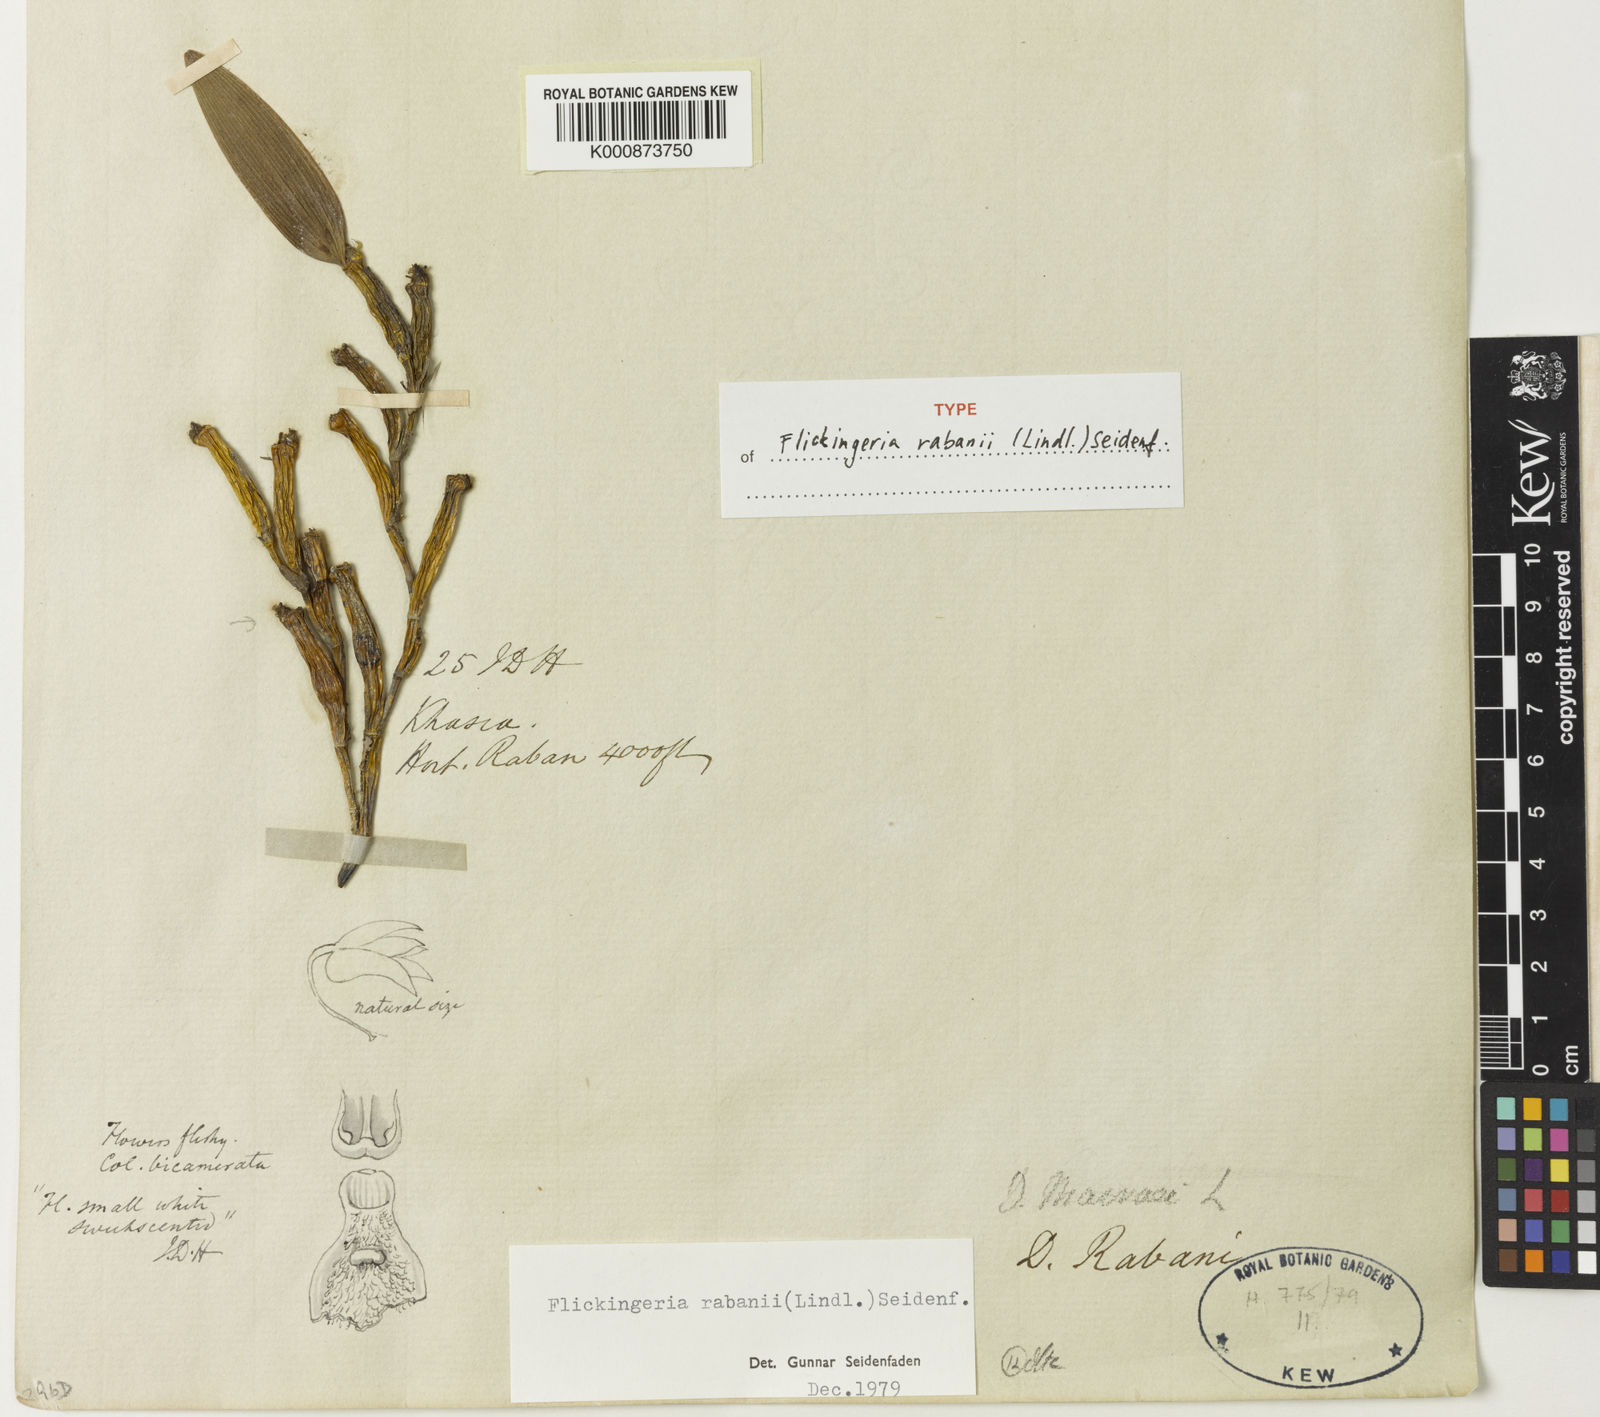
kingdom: Plantae
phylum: Tracheophyta
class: Liliopsida
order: Asparagales
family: Orchidaceae
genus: Dendrobium
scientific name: Dendrobium rabanii
